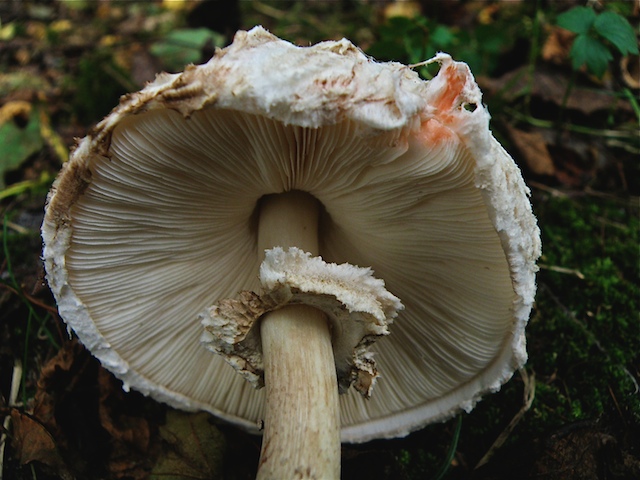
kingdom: Fungi
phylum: Basidiomycota
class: Agaricomycetes
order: Agaricales
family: Agaricaceae
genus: Chlorophyllum
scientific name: Chlorophyllum rhacodes
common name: ægte rabarberhat
